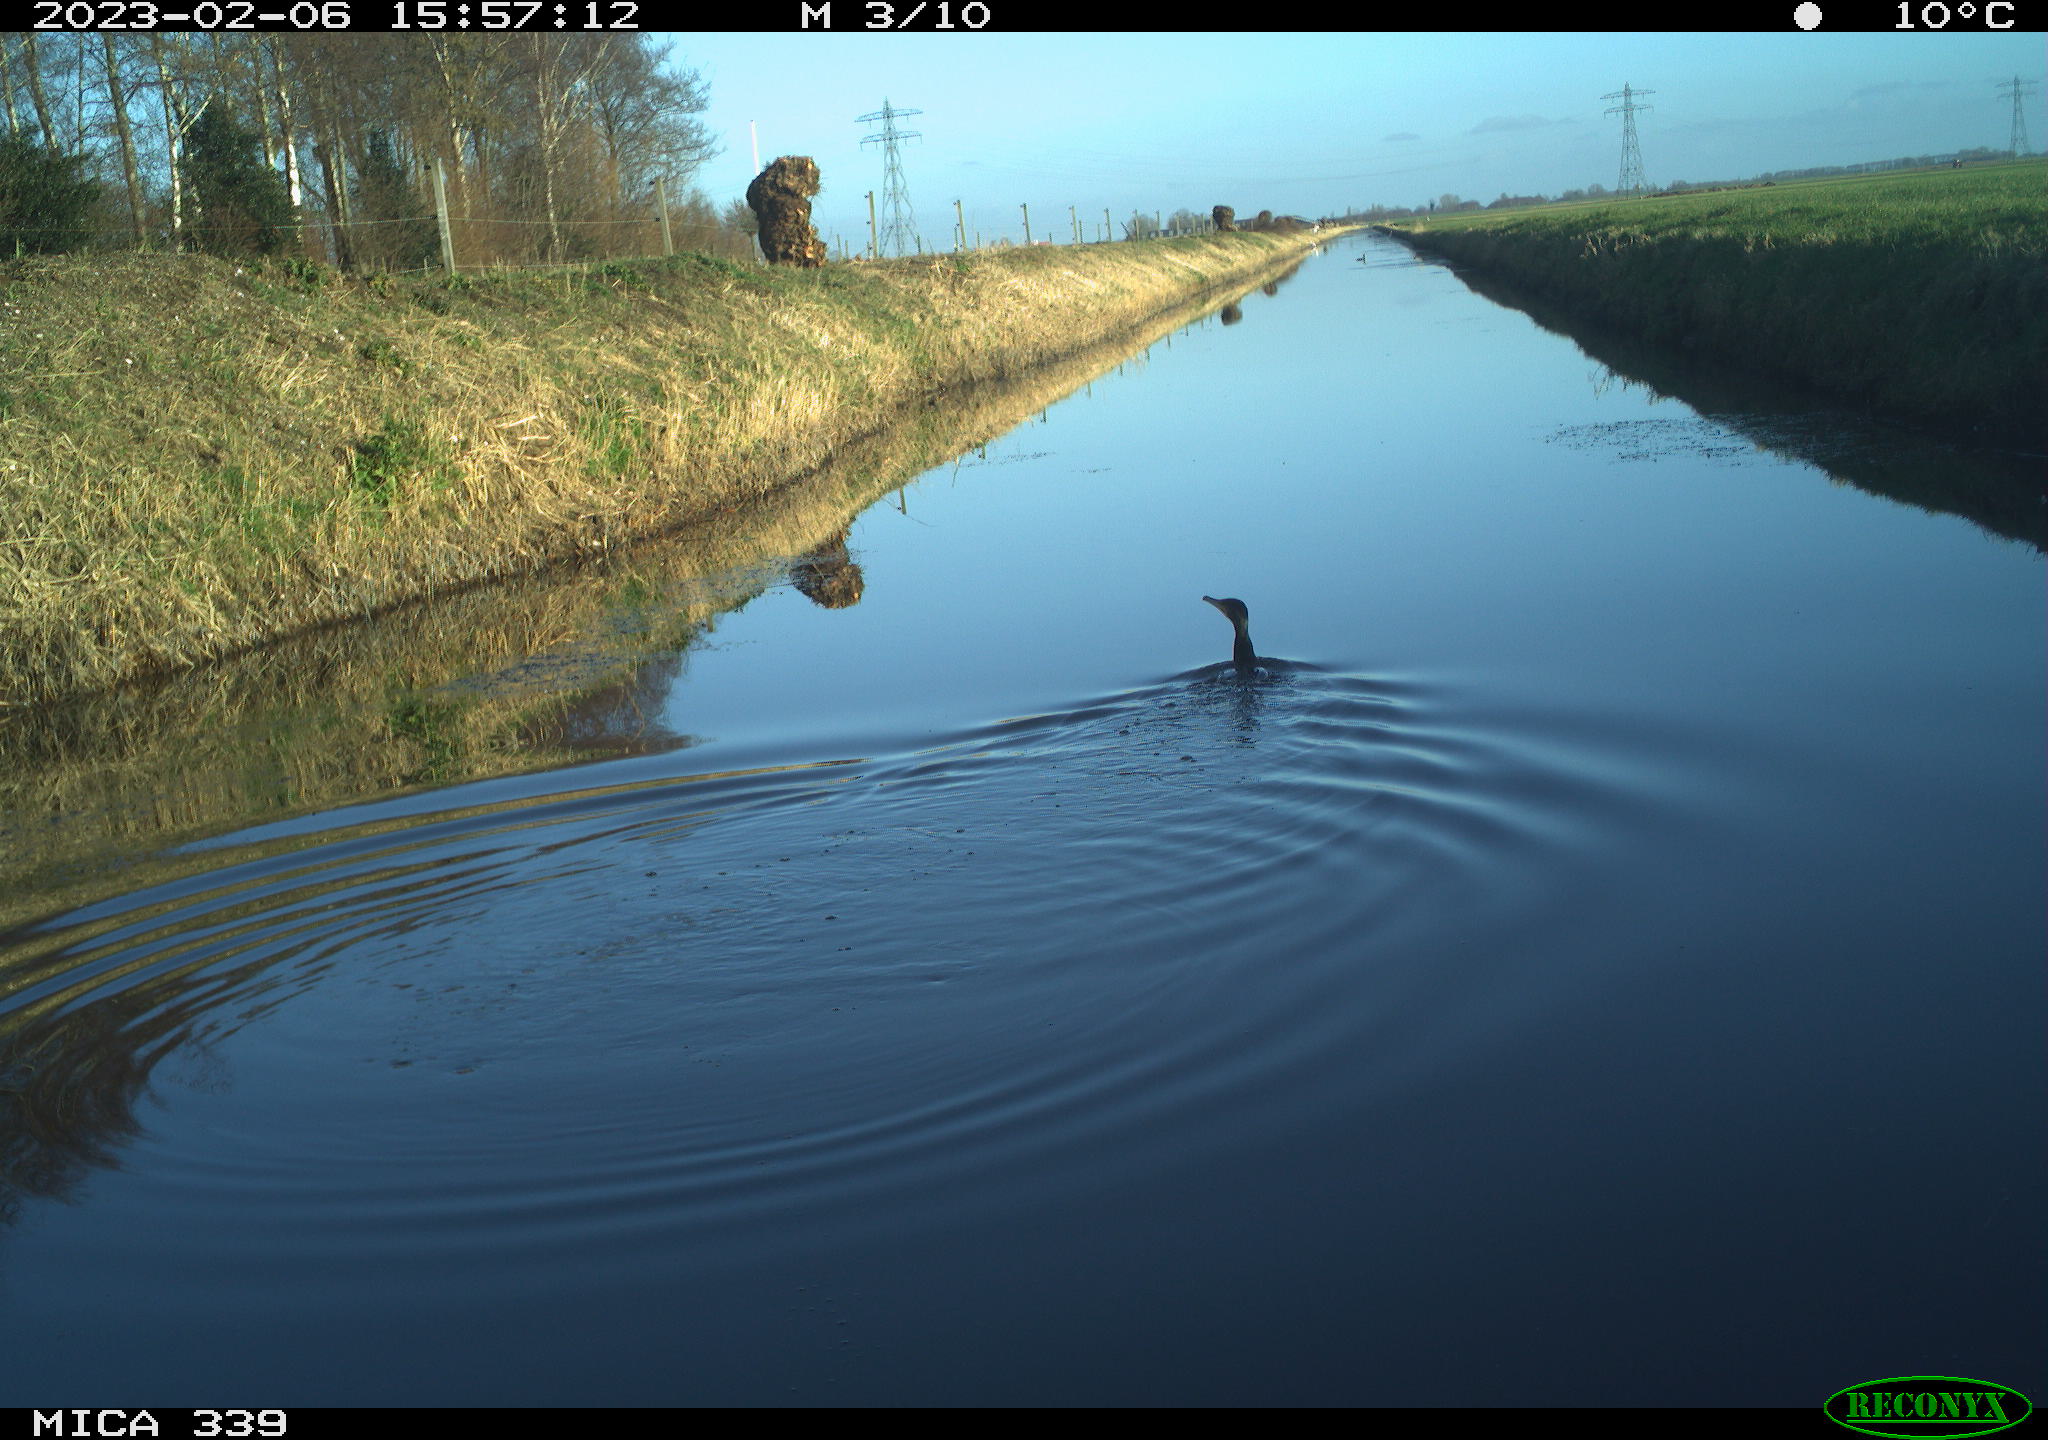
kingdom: Animalia
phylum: Chordata
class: Aves
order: Suliformes
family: Phalacrocoracidae
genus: Phalacrocorax
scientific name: Phalacrocorax carbo
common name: Great cormorant
